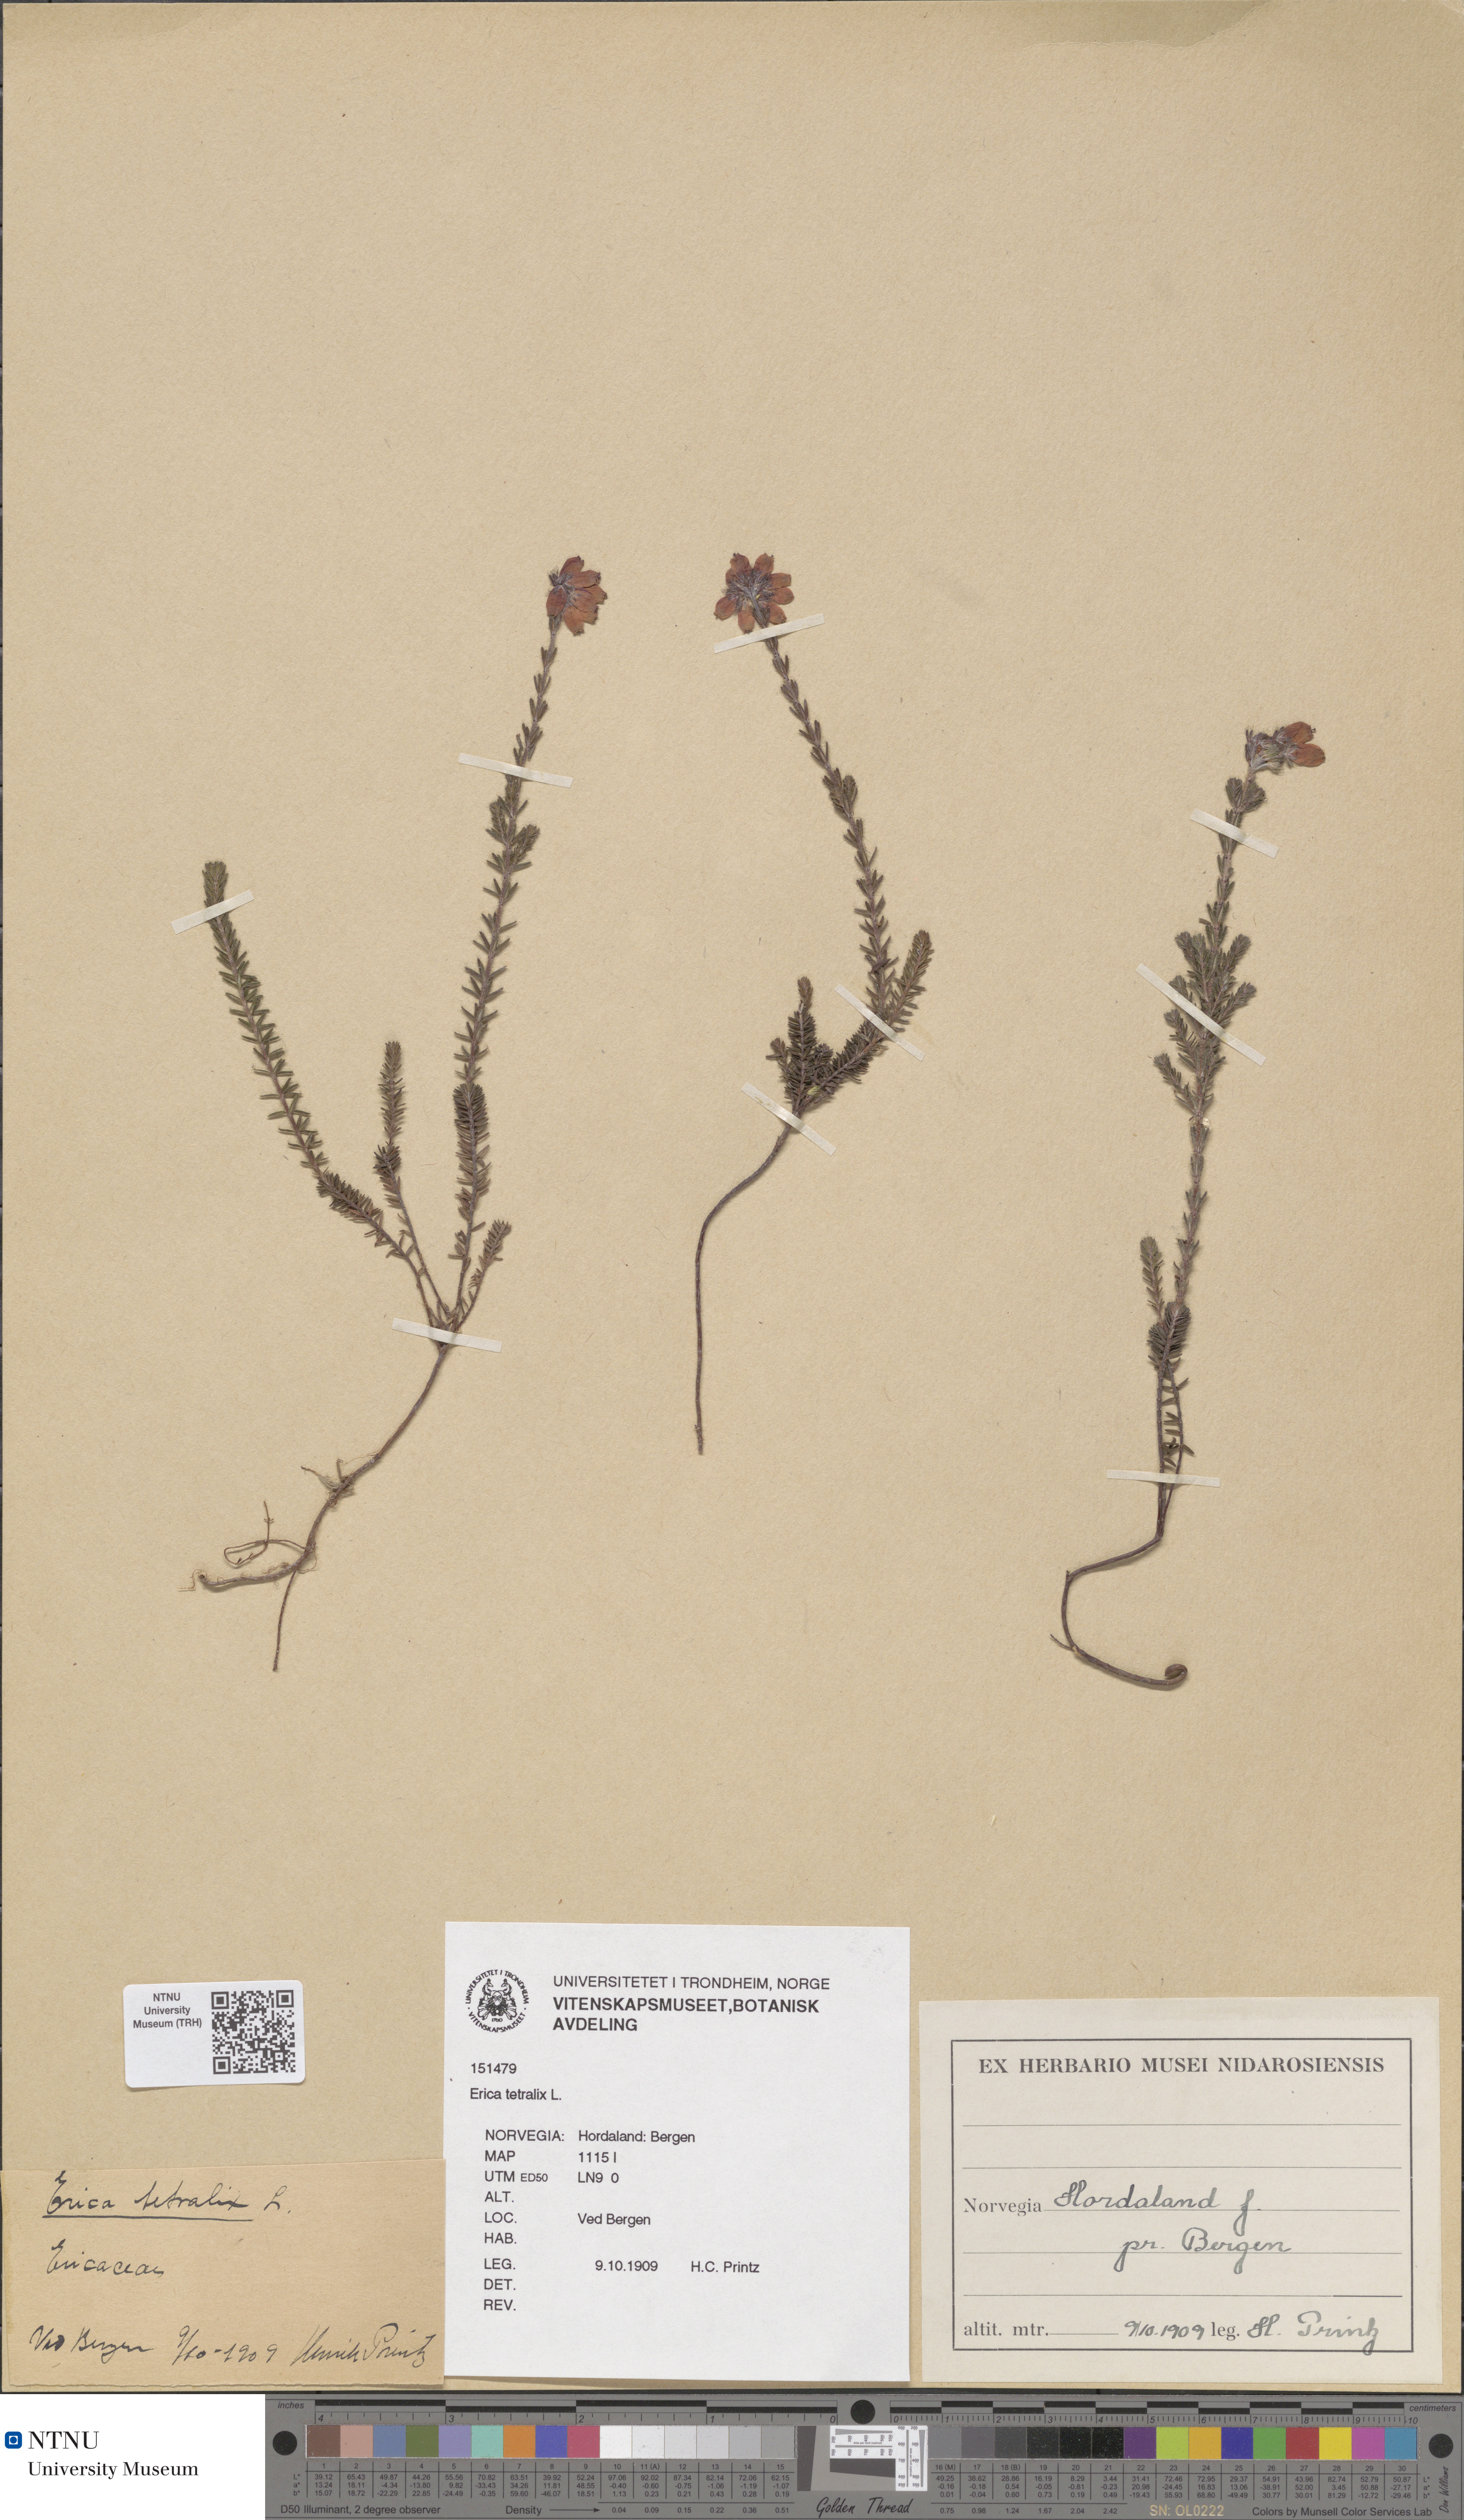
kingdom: Plantae
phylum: Tracheophyta
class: Magnoliopsida
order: Ericales
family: Ericaceae
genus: Erica
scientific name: Erica tetralix
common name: Cross-leaved heath
